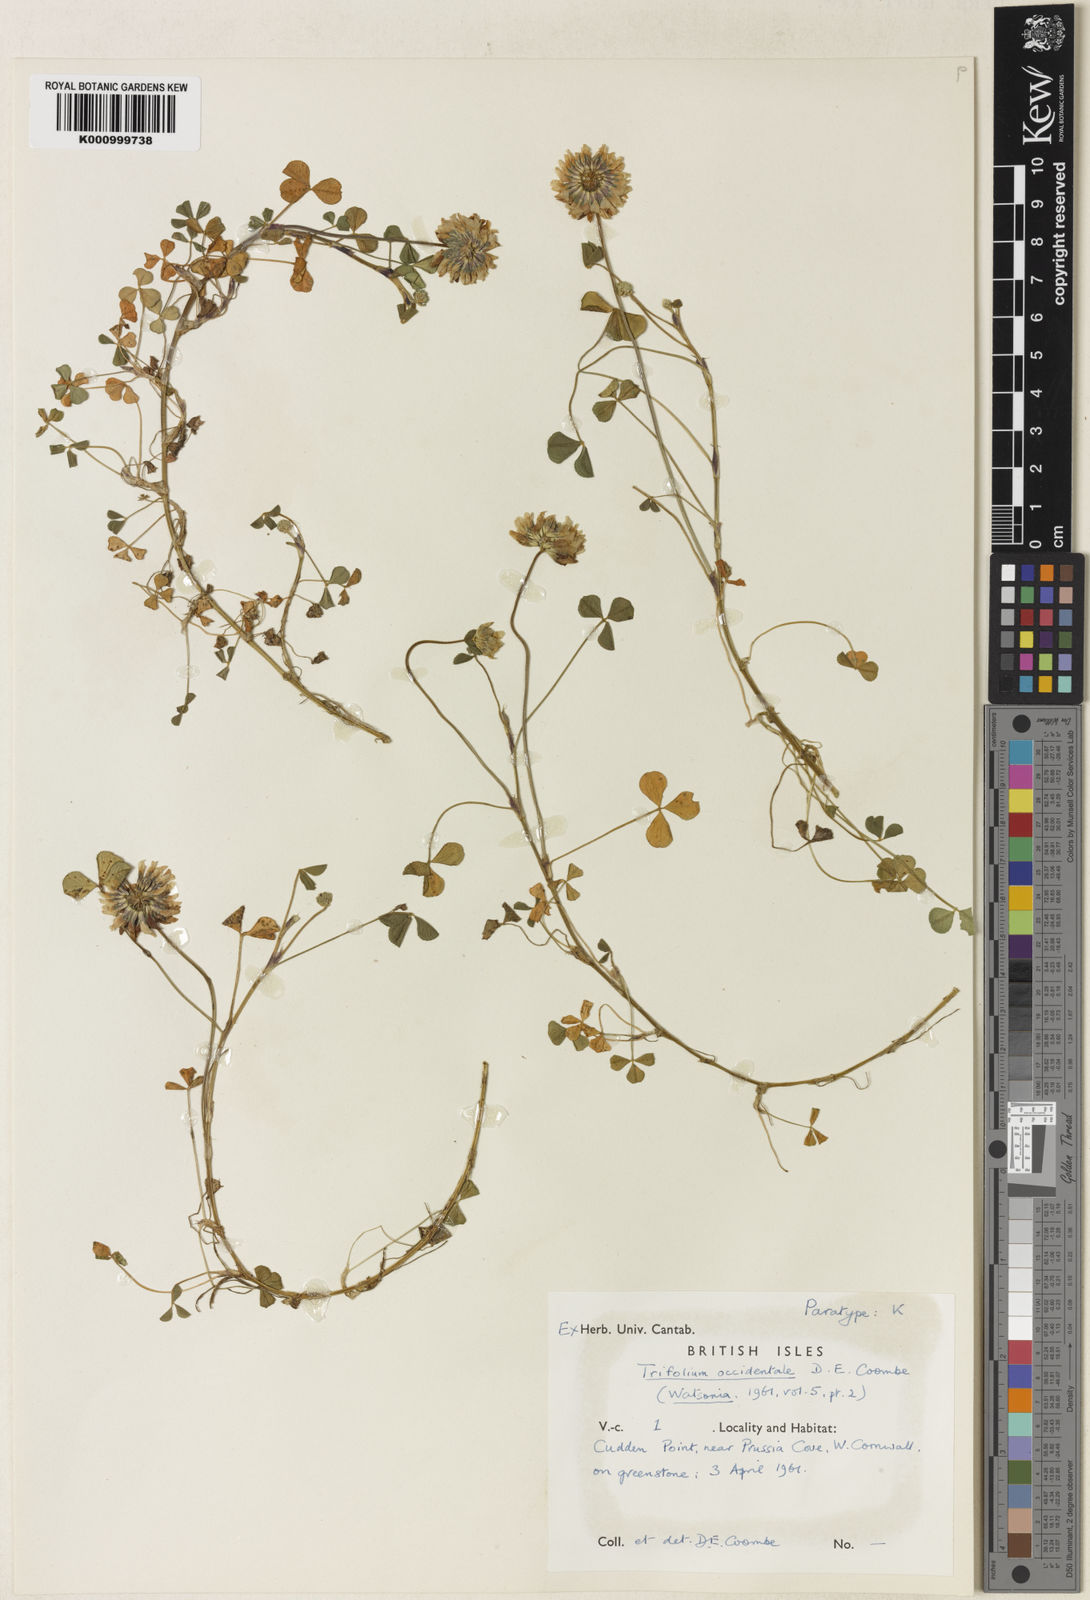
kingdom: Plantae
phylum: Tracheophyta
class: Magnoliopsida
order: Fabales
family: Fabaceae
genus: Trifolium
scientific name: Trifolium occidentale
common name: Western clover
